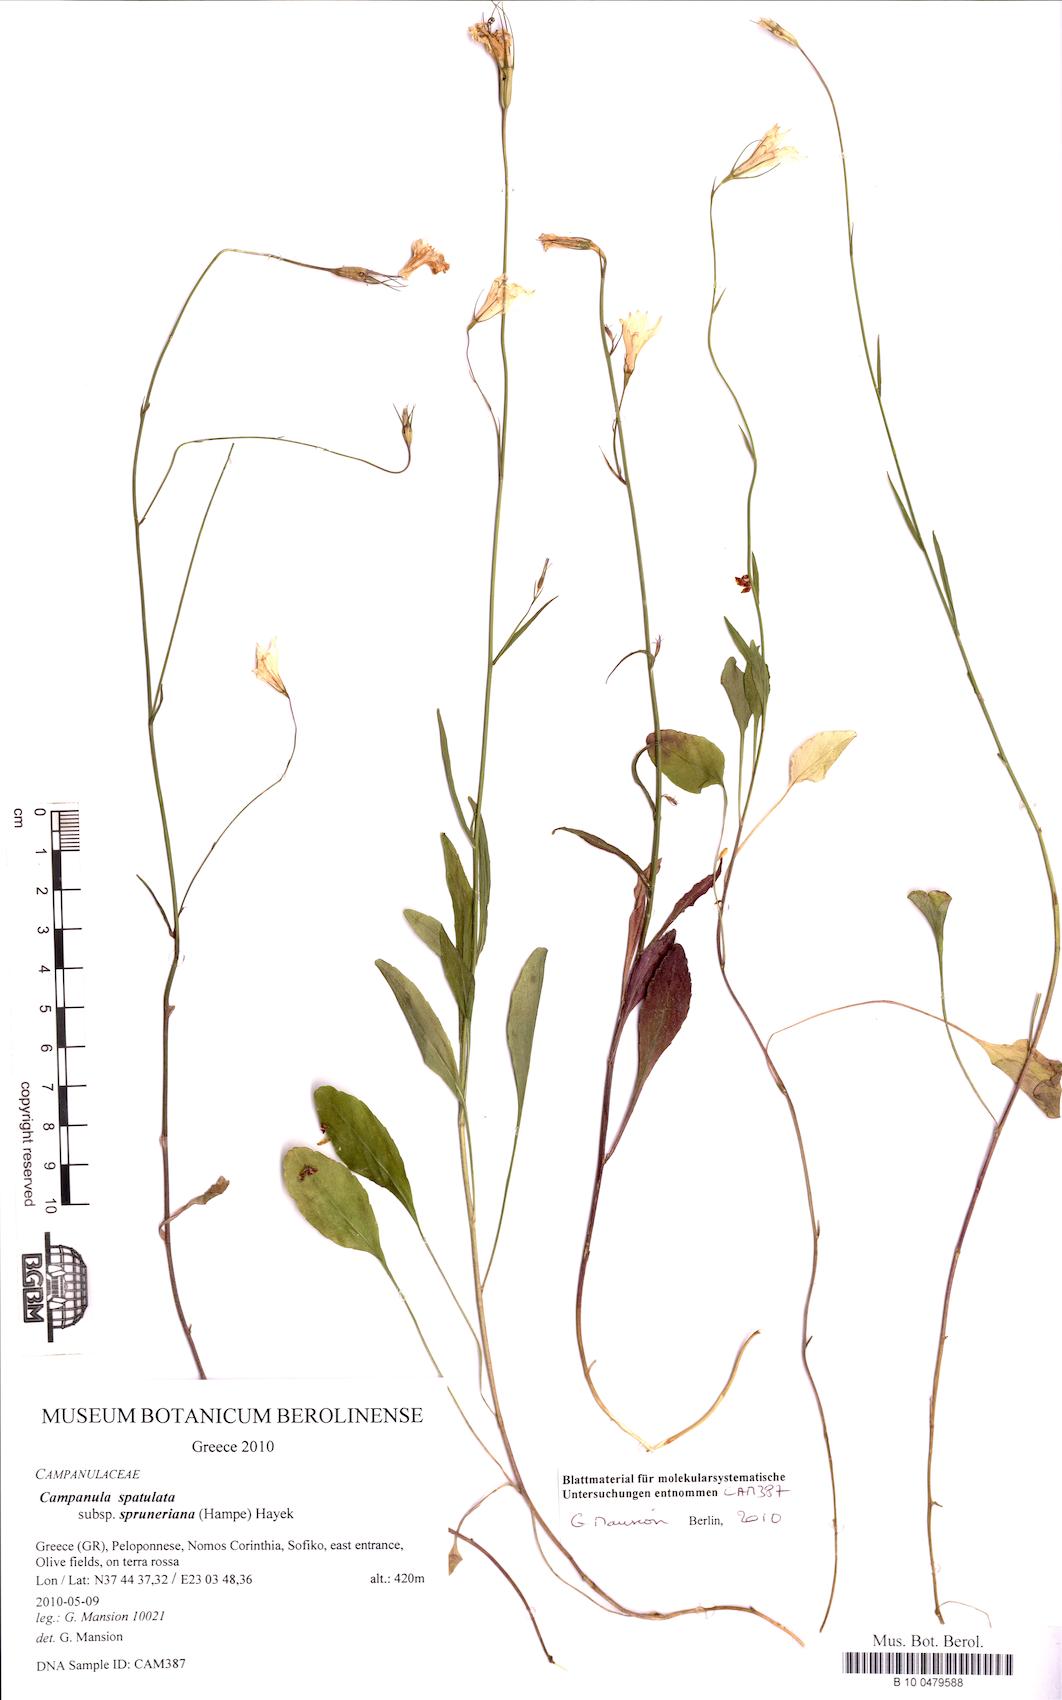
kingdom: Plantae
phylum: Tracheophyta
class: Magnoliopsida
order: Asterales
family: Campanulaceae
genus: Campanula
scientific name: Campanula spatulata
